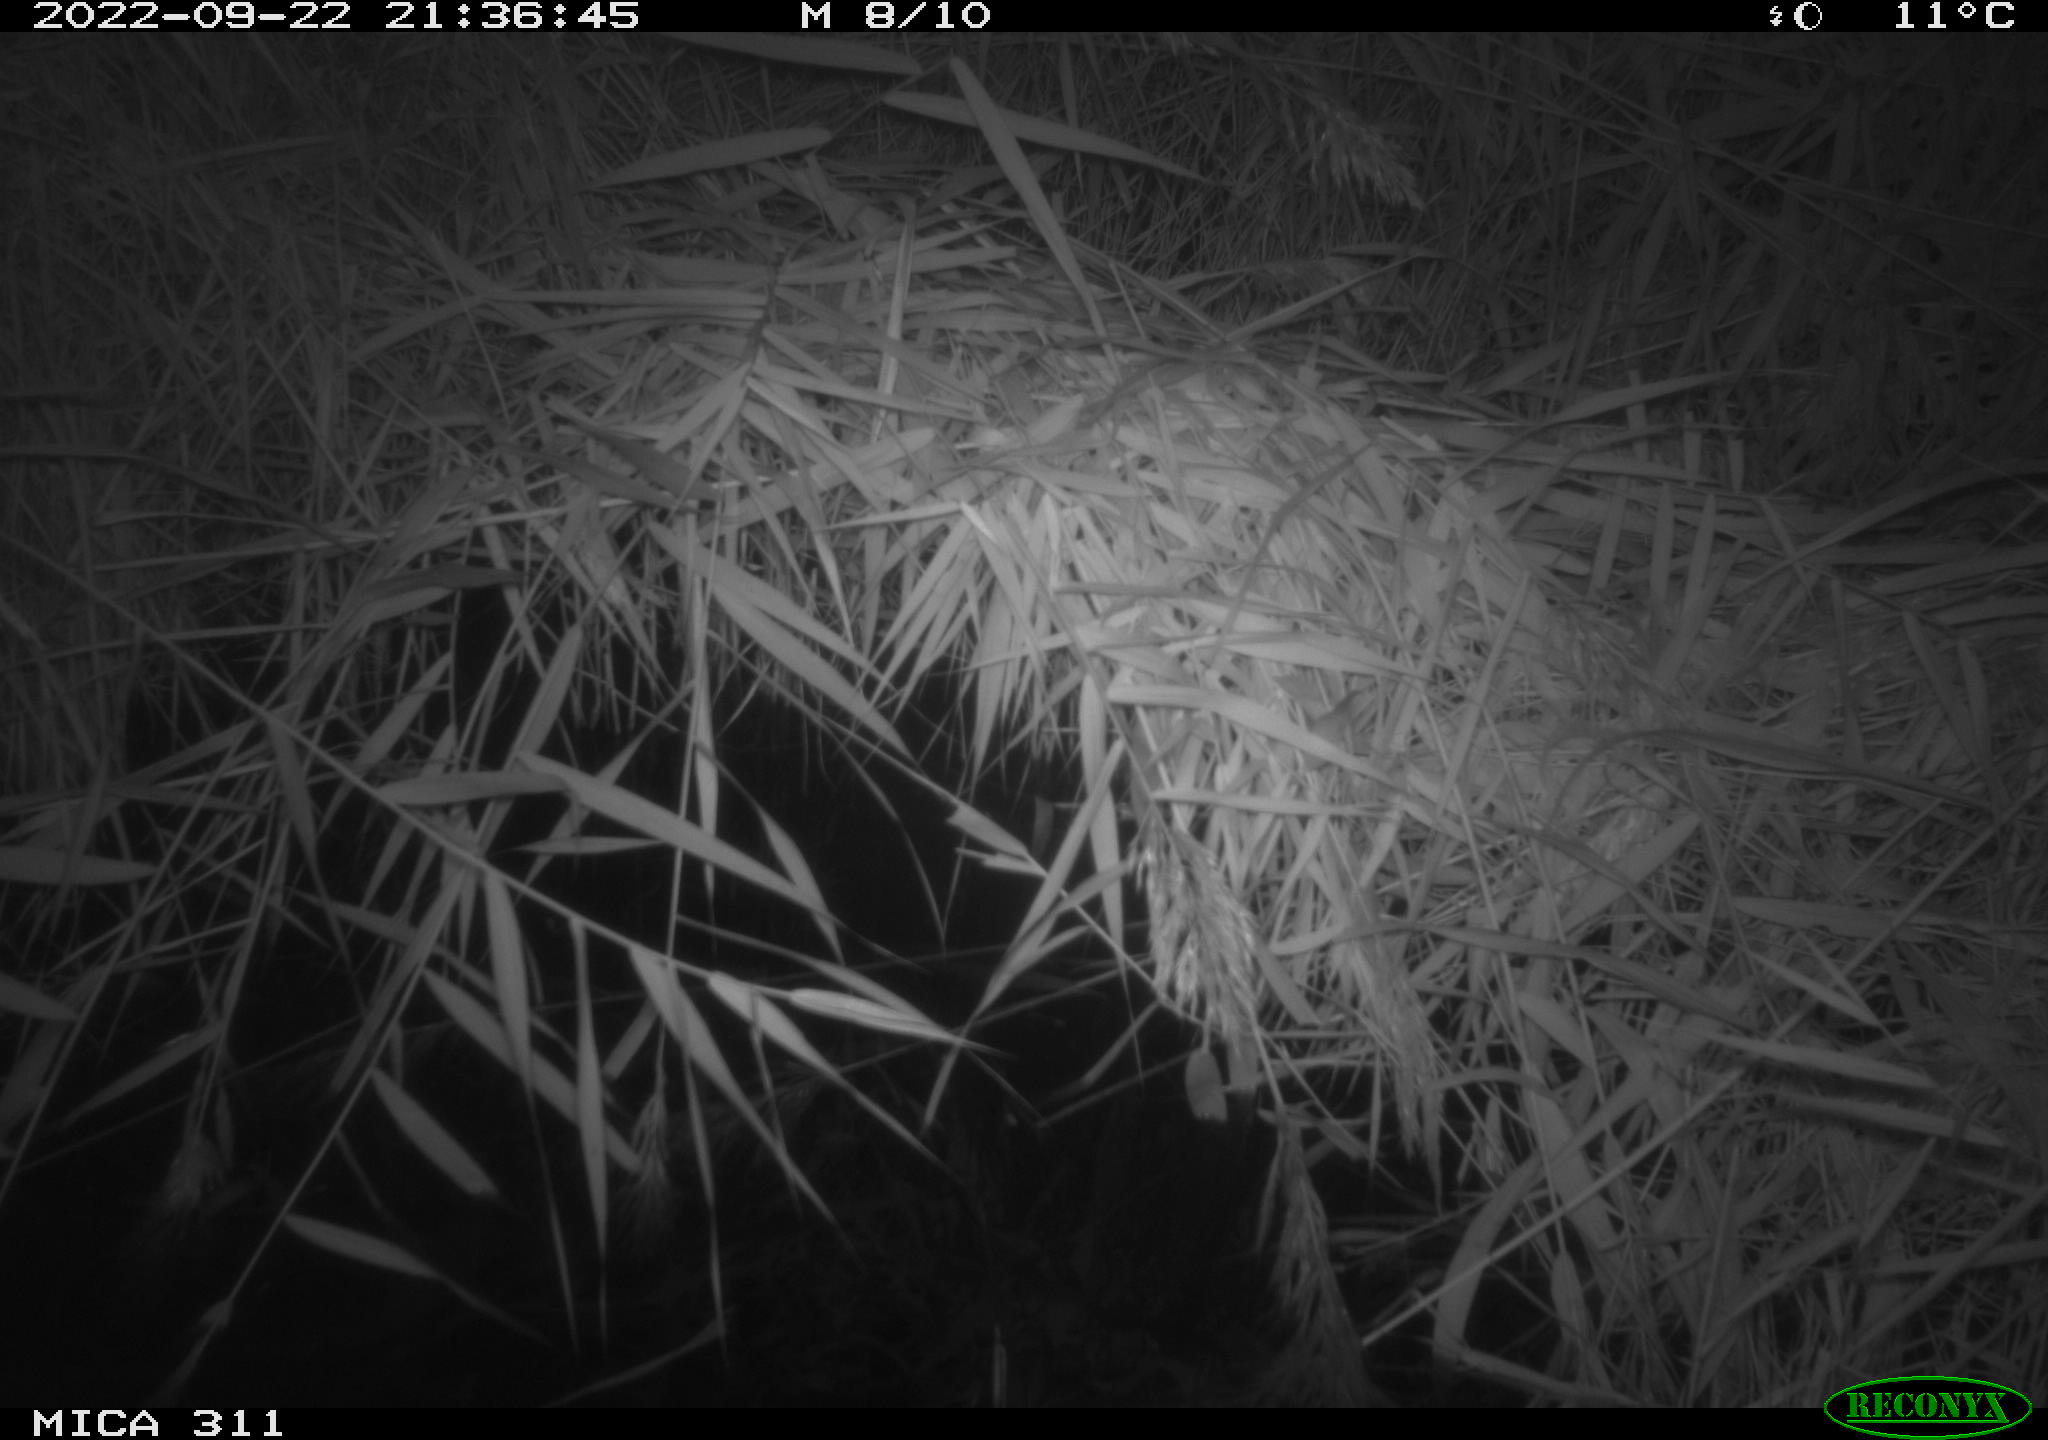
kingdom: Animalia
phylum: Chordata
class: Mammalia
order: Rodentia
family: Muridae
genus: Rattus
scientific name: Rattus norvegicus
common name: Brown rat
